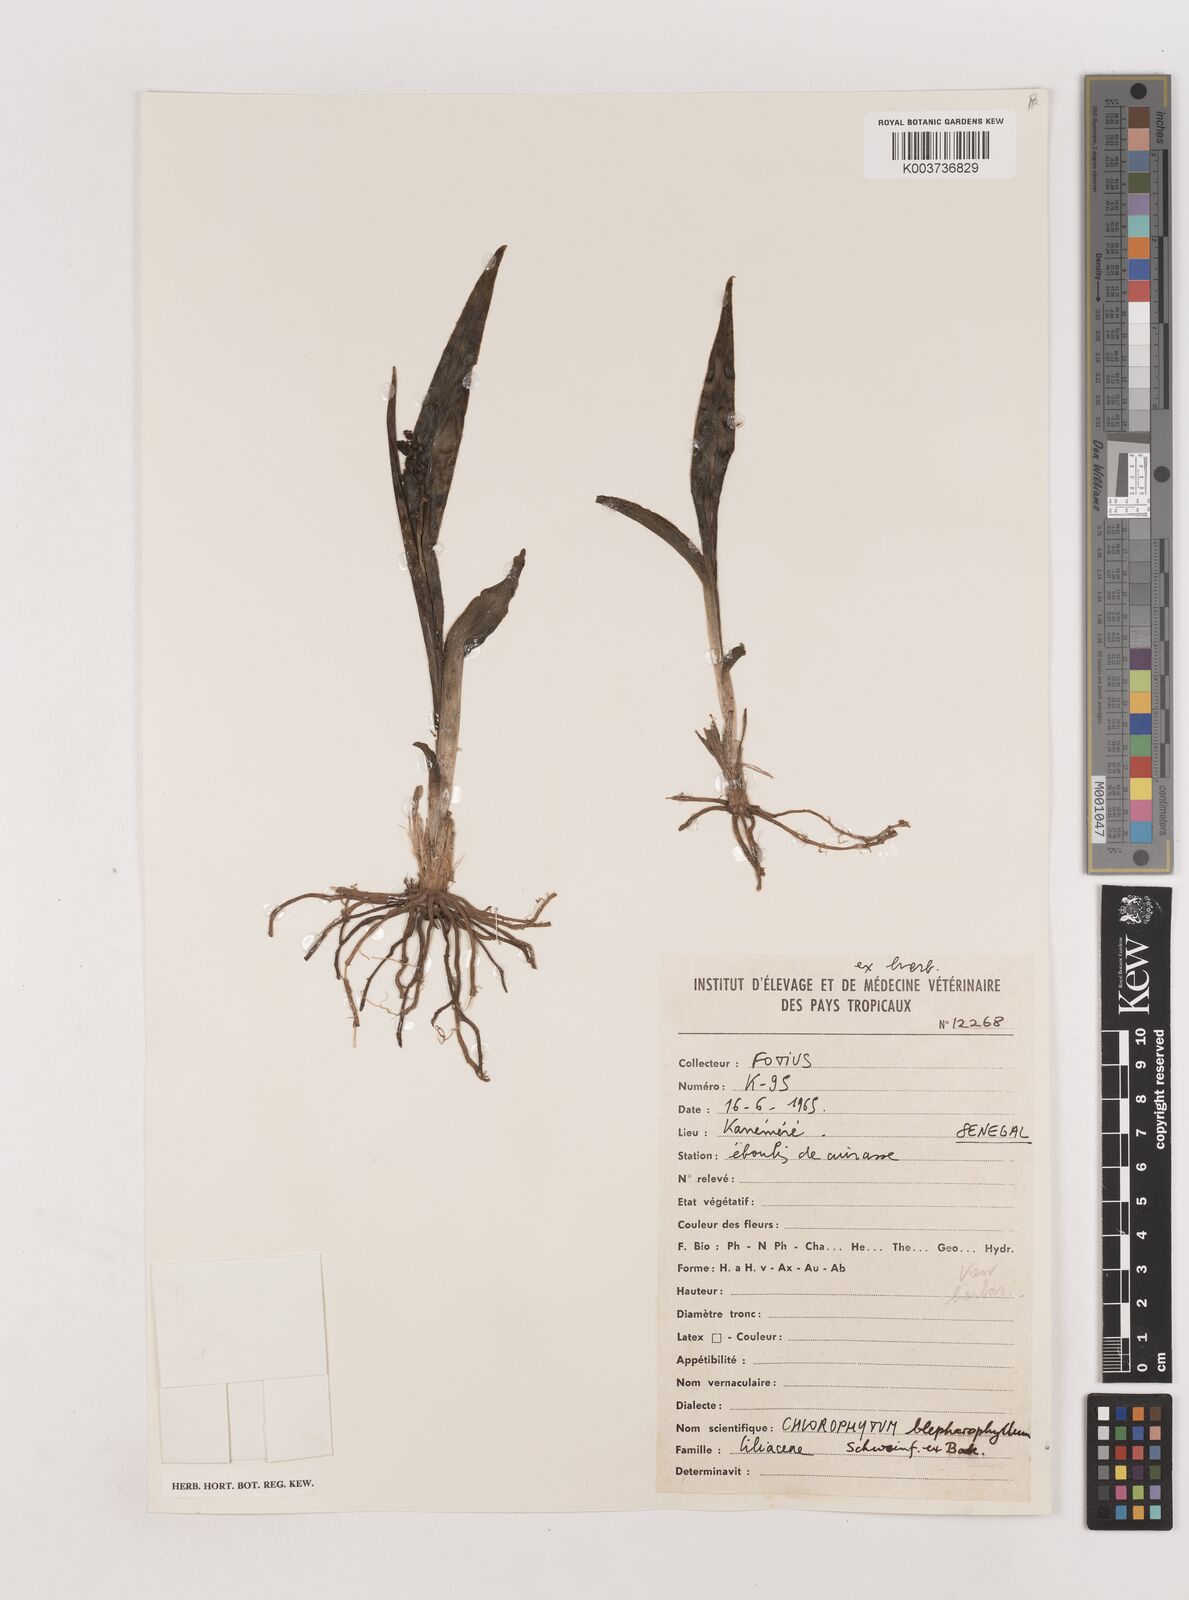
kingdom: Plantae
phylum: Tracheophyta
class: Liliopsida
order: Asparagales
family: Asparagaceae
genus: Chlorophytum
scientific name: Chlorophytum blepharophyllum
